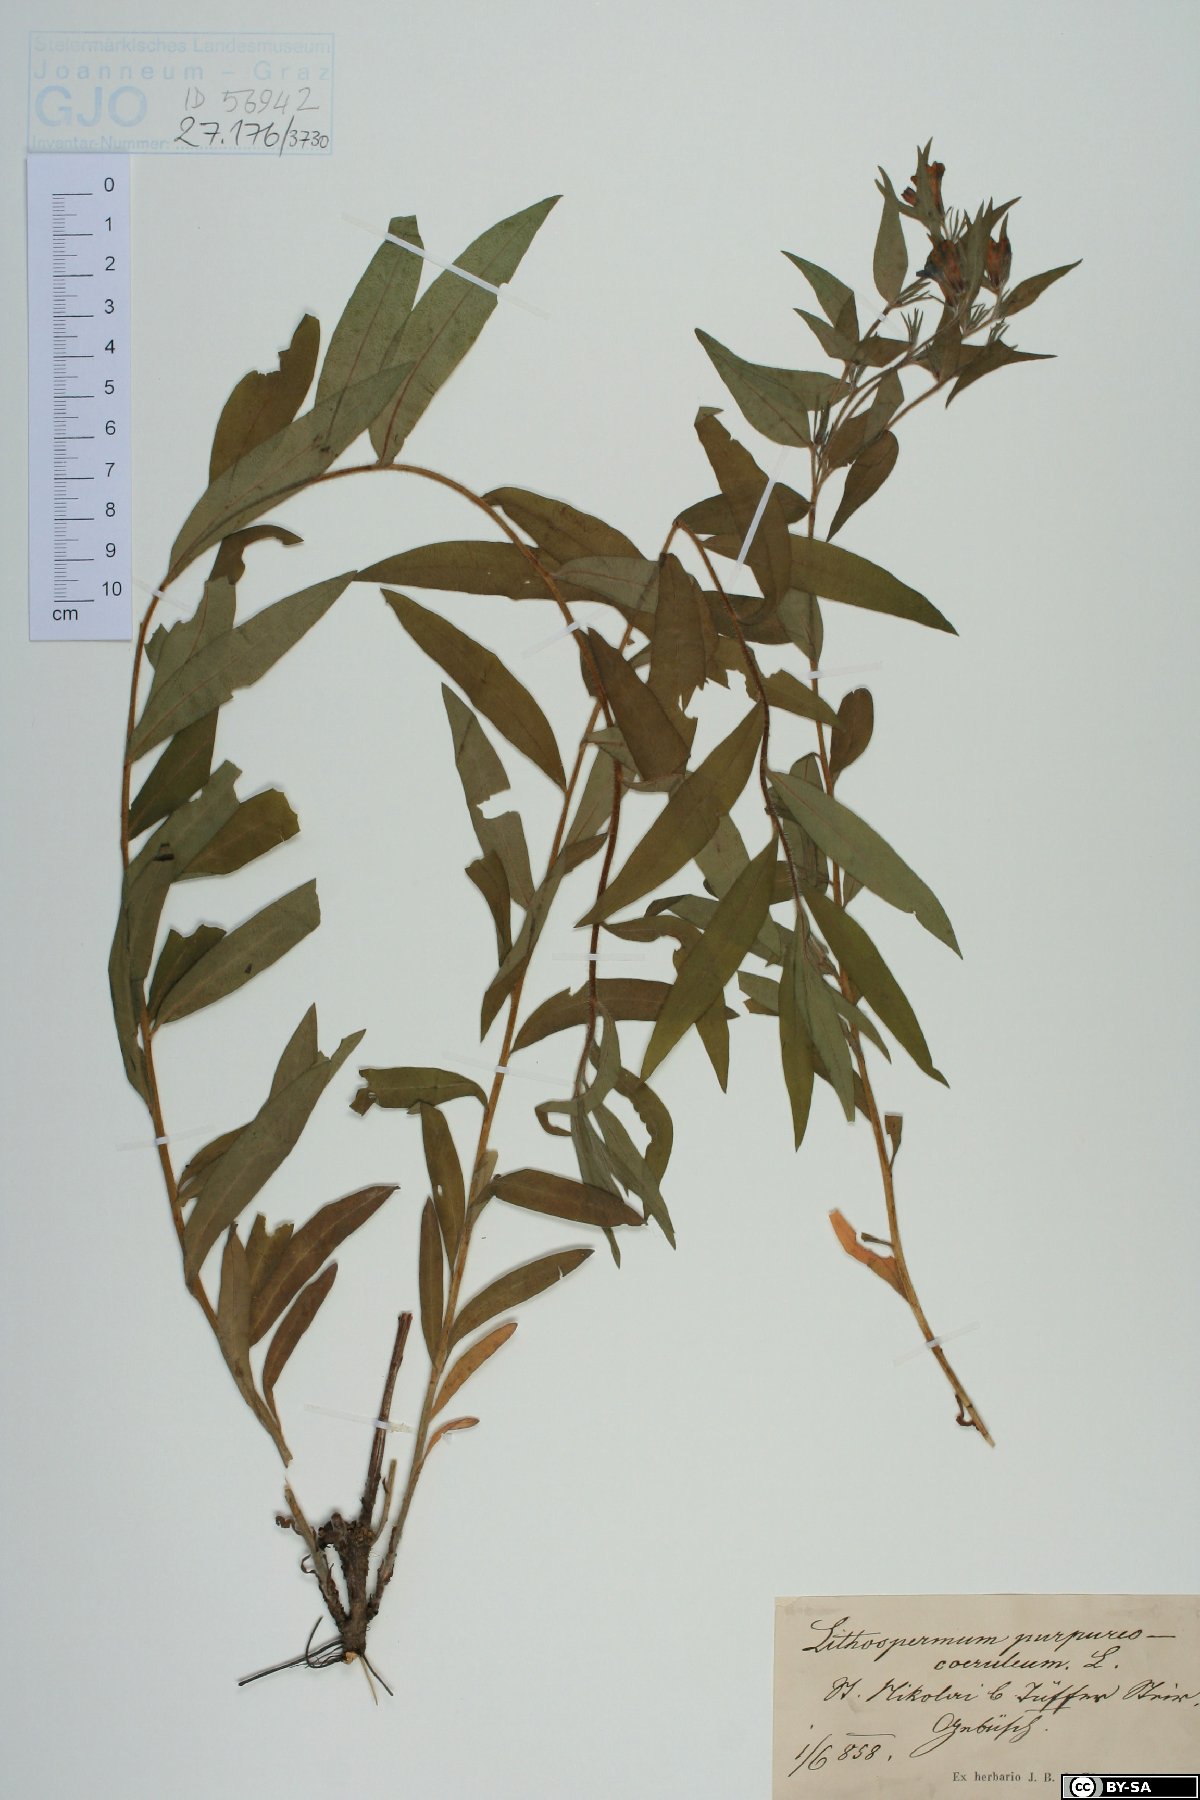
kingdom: Plantae
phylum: Tracheophyta
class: Magnoliopsida
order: Boraginales
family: Boraginaceae
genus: Aegonychon
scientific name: Aegonychon purpurocaeruleum
